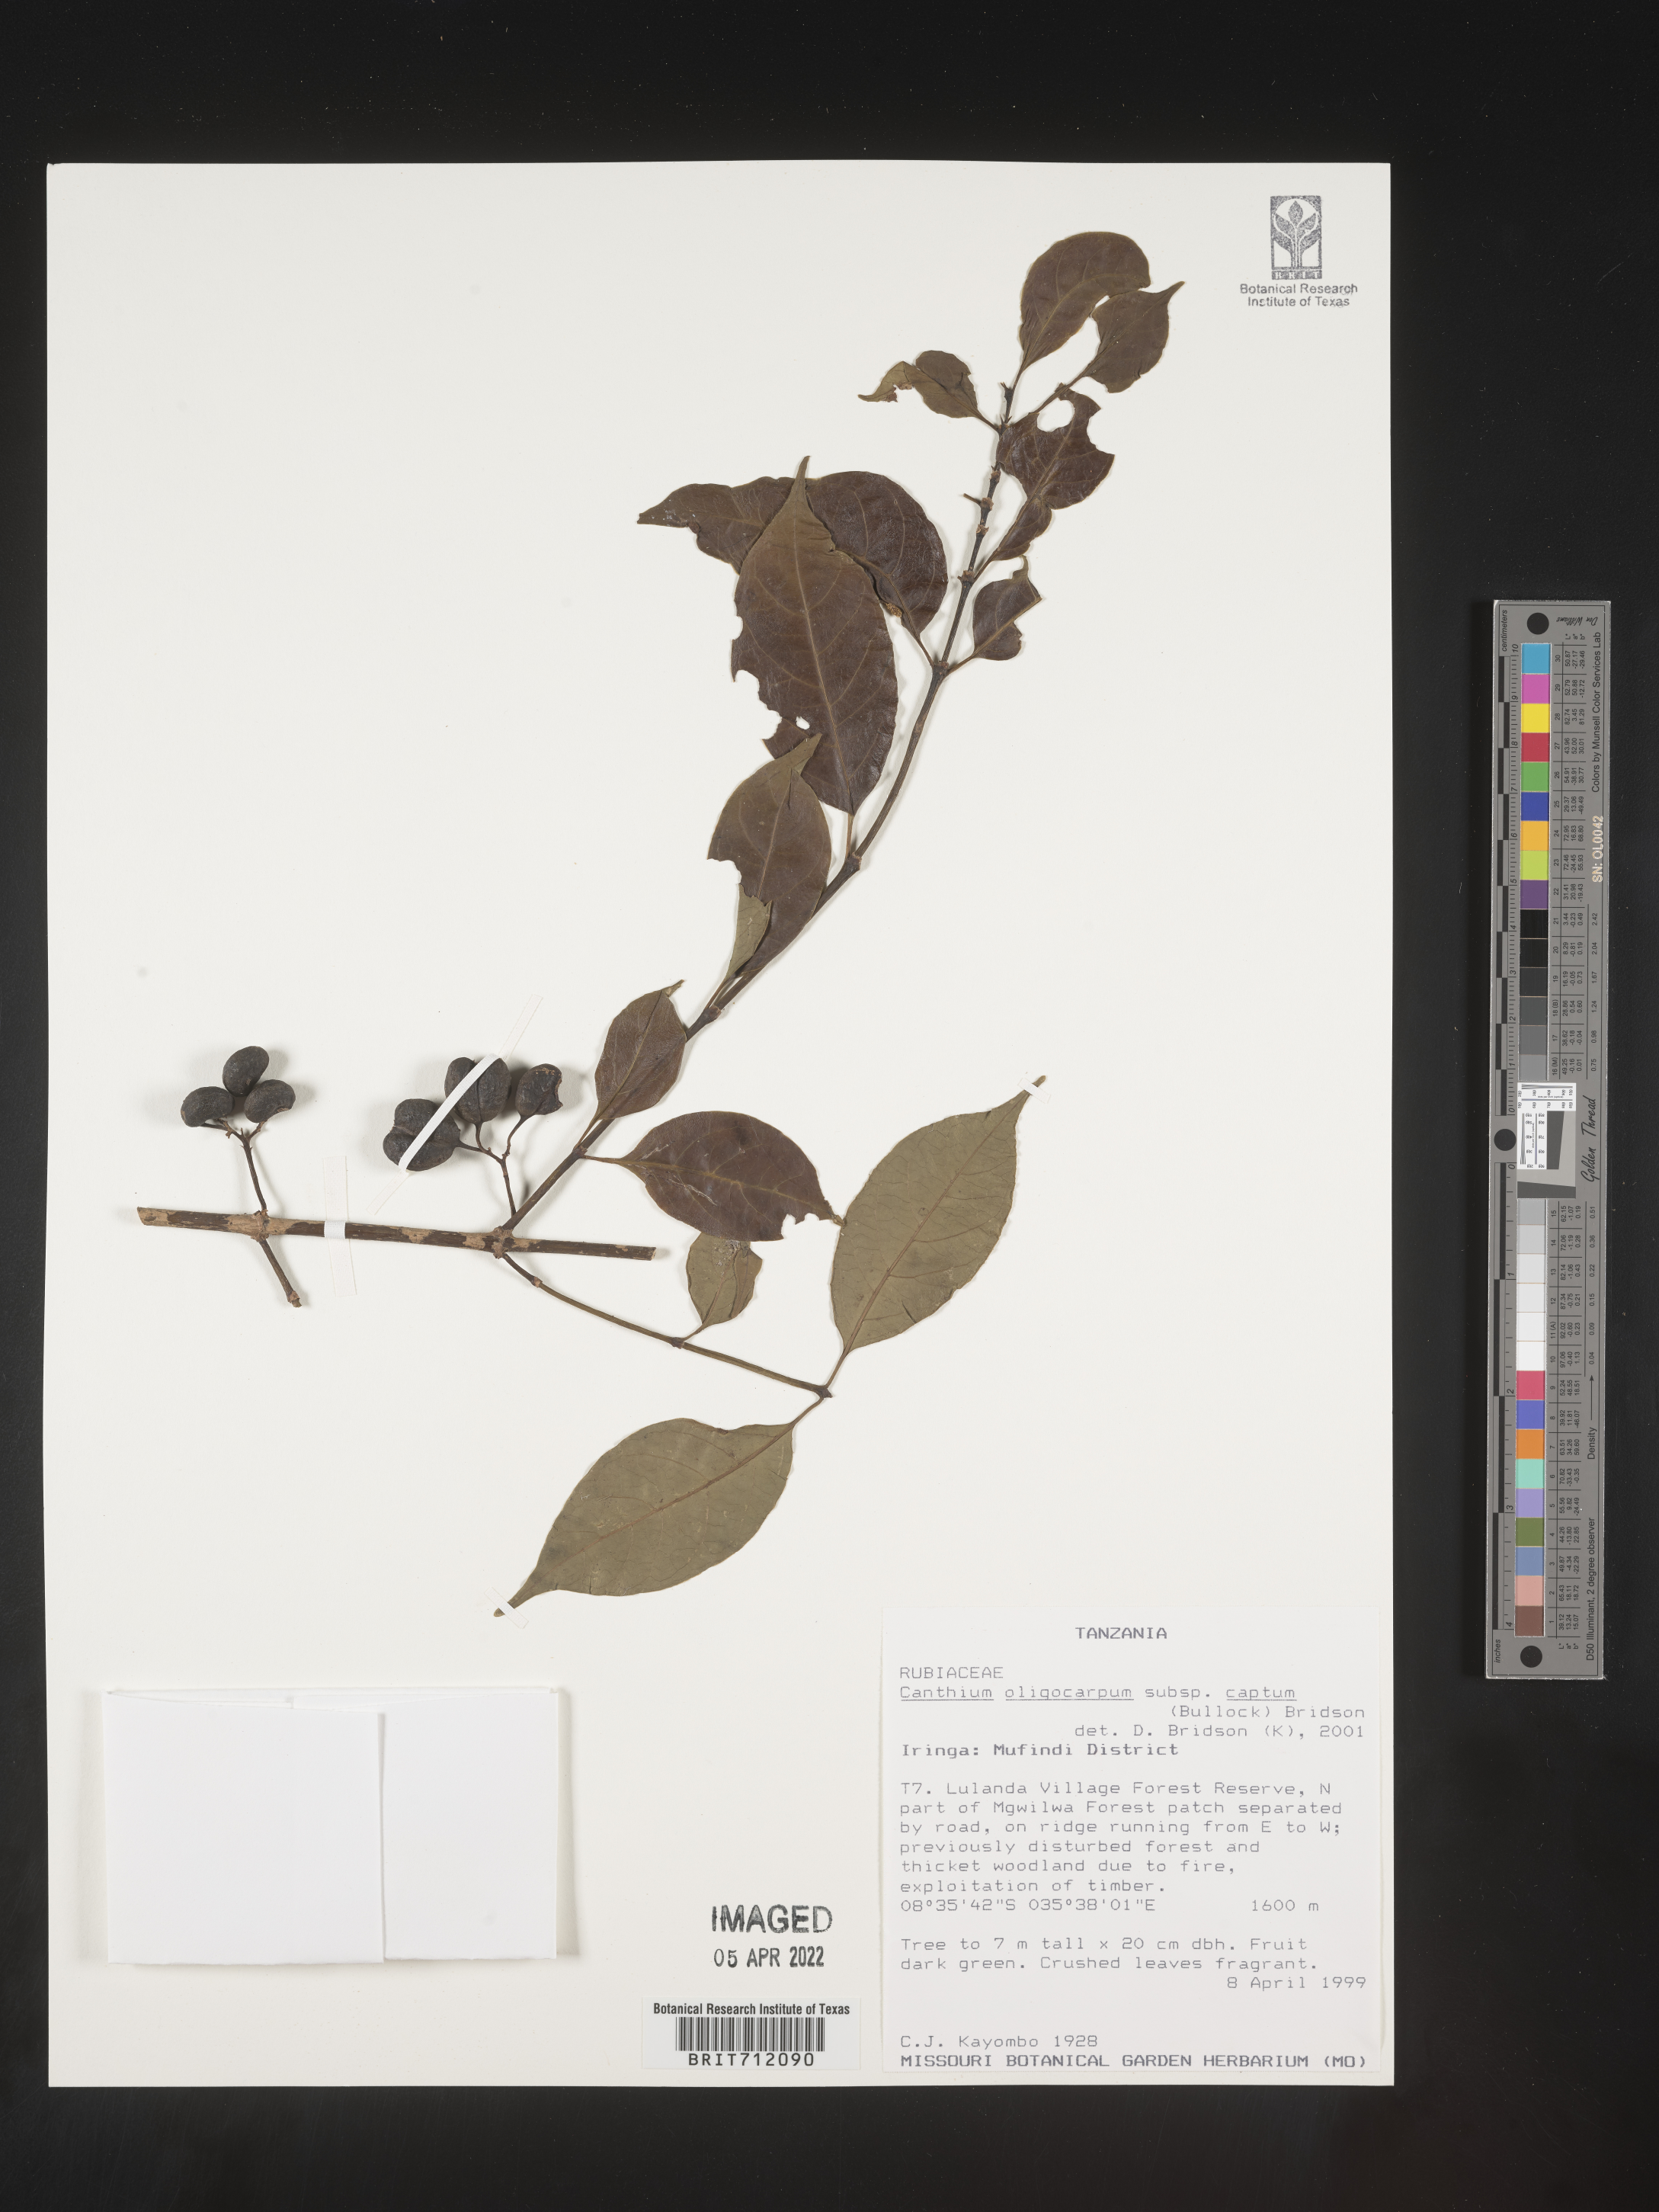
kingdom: Plantae
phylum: Tracheophyta
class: Magnoliopsida
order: Gentianales
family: Rubiaceae
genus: Canthium
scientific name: Canthium
